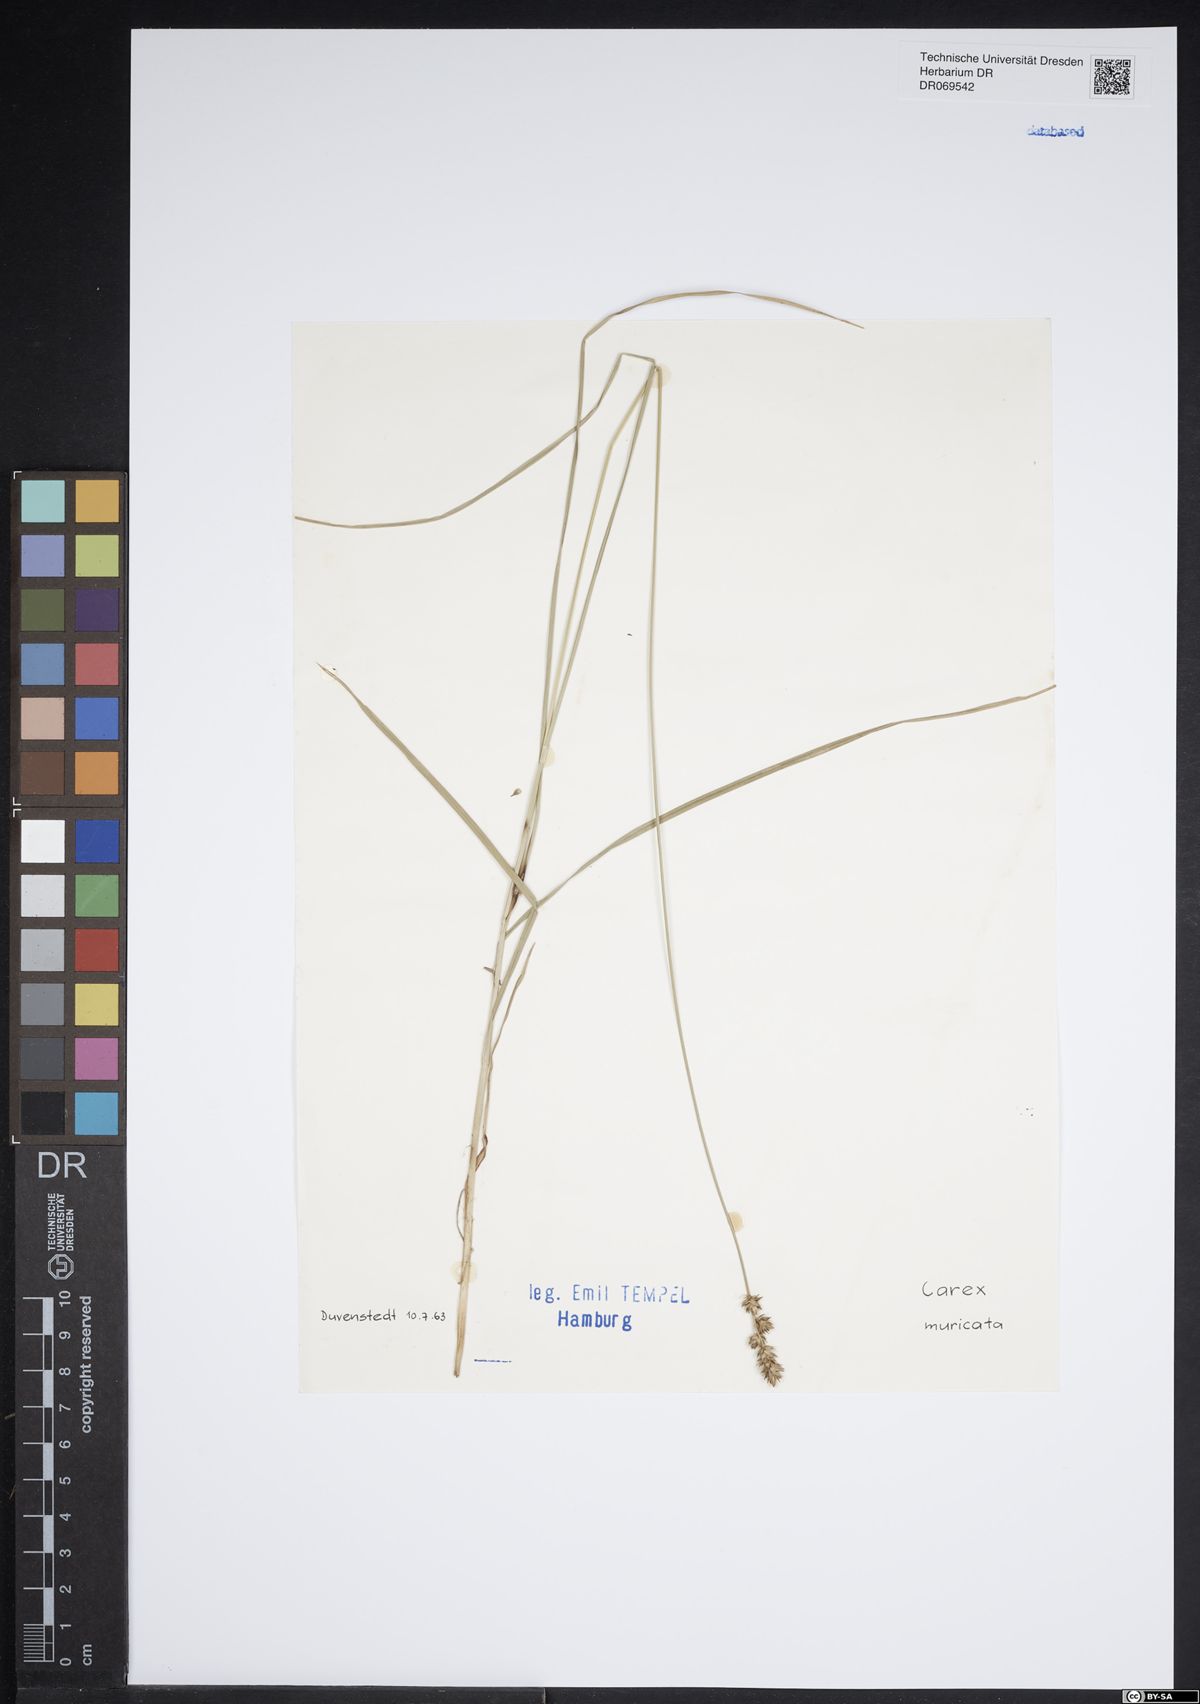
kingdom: Plantae
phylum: Tracheophyta
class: Liliopsida
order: Poales
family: Cyperaceae
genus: Carex
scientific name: Carex muricata
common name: Rough sedge
